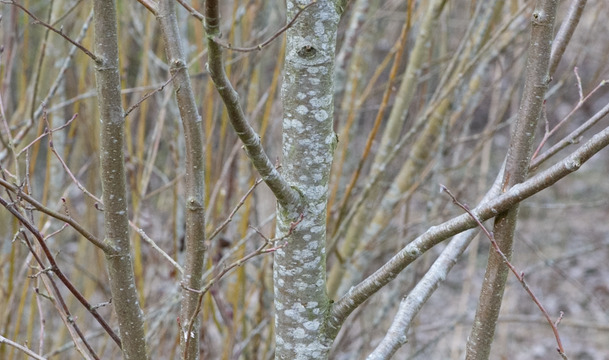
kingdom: Plantae
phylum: Tracheophyta
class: Magnoliopsida
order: Fagales
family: Betulaceae
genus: Alnus
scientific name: Alnus glutinosa
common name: Rød-el
